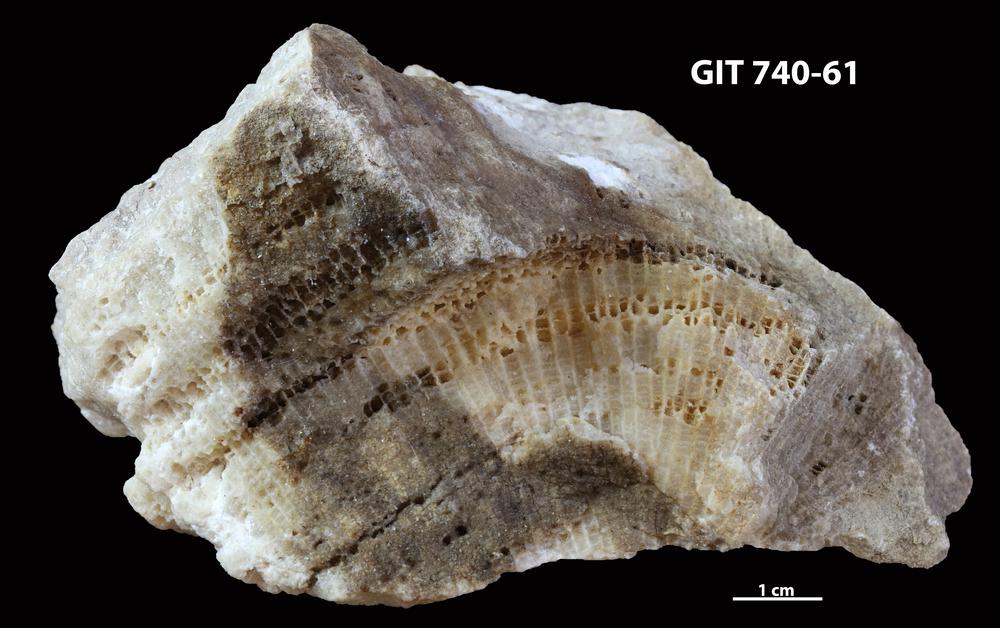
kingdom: Animalia
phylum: Cnidaria
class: Anthozoa
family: Favositidae
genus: Paleofavosites
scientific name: Paleofavosites
